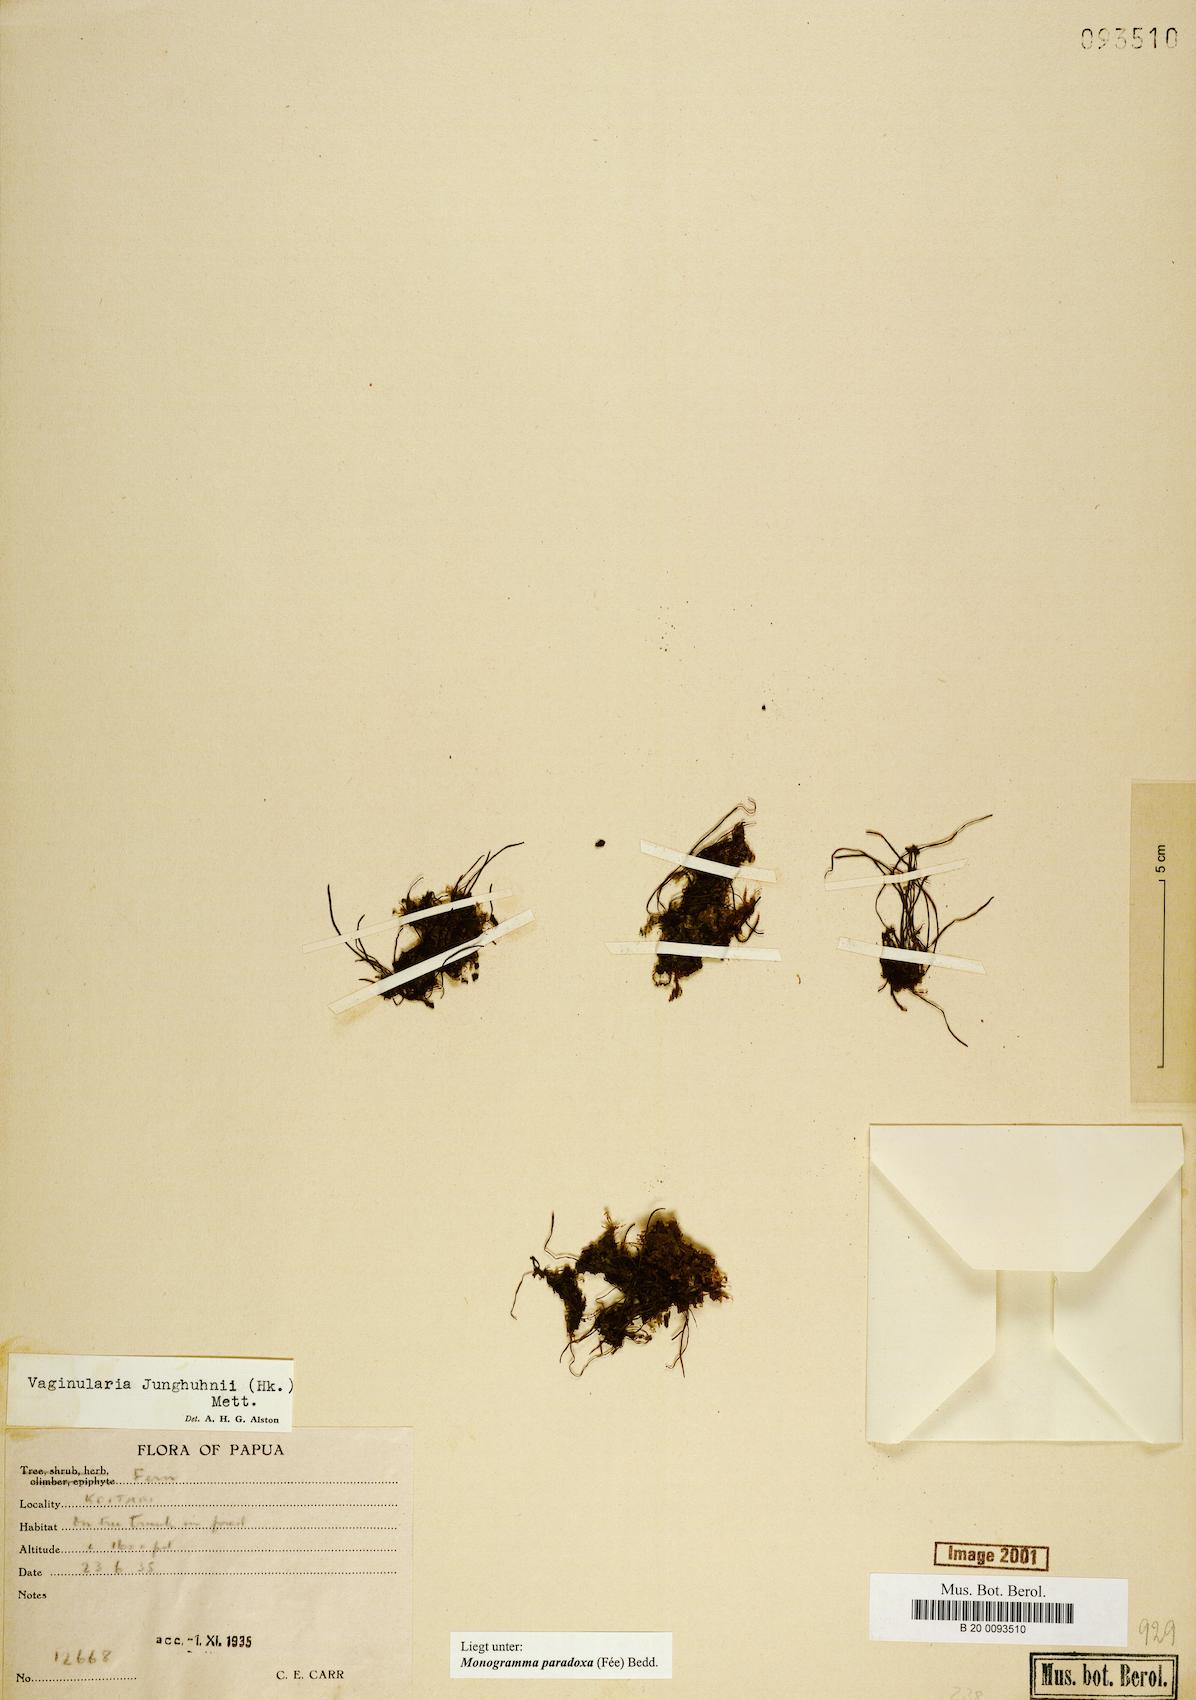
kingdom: Plantae
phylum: Tracheophyta
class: Polypodiopsida
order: Polypodiales
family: Pteridaceae
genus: Vaginularia
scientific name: Vaginularia paradoxa
